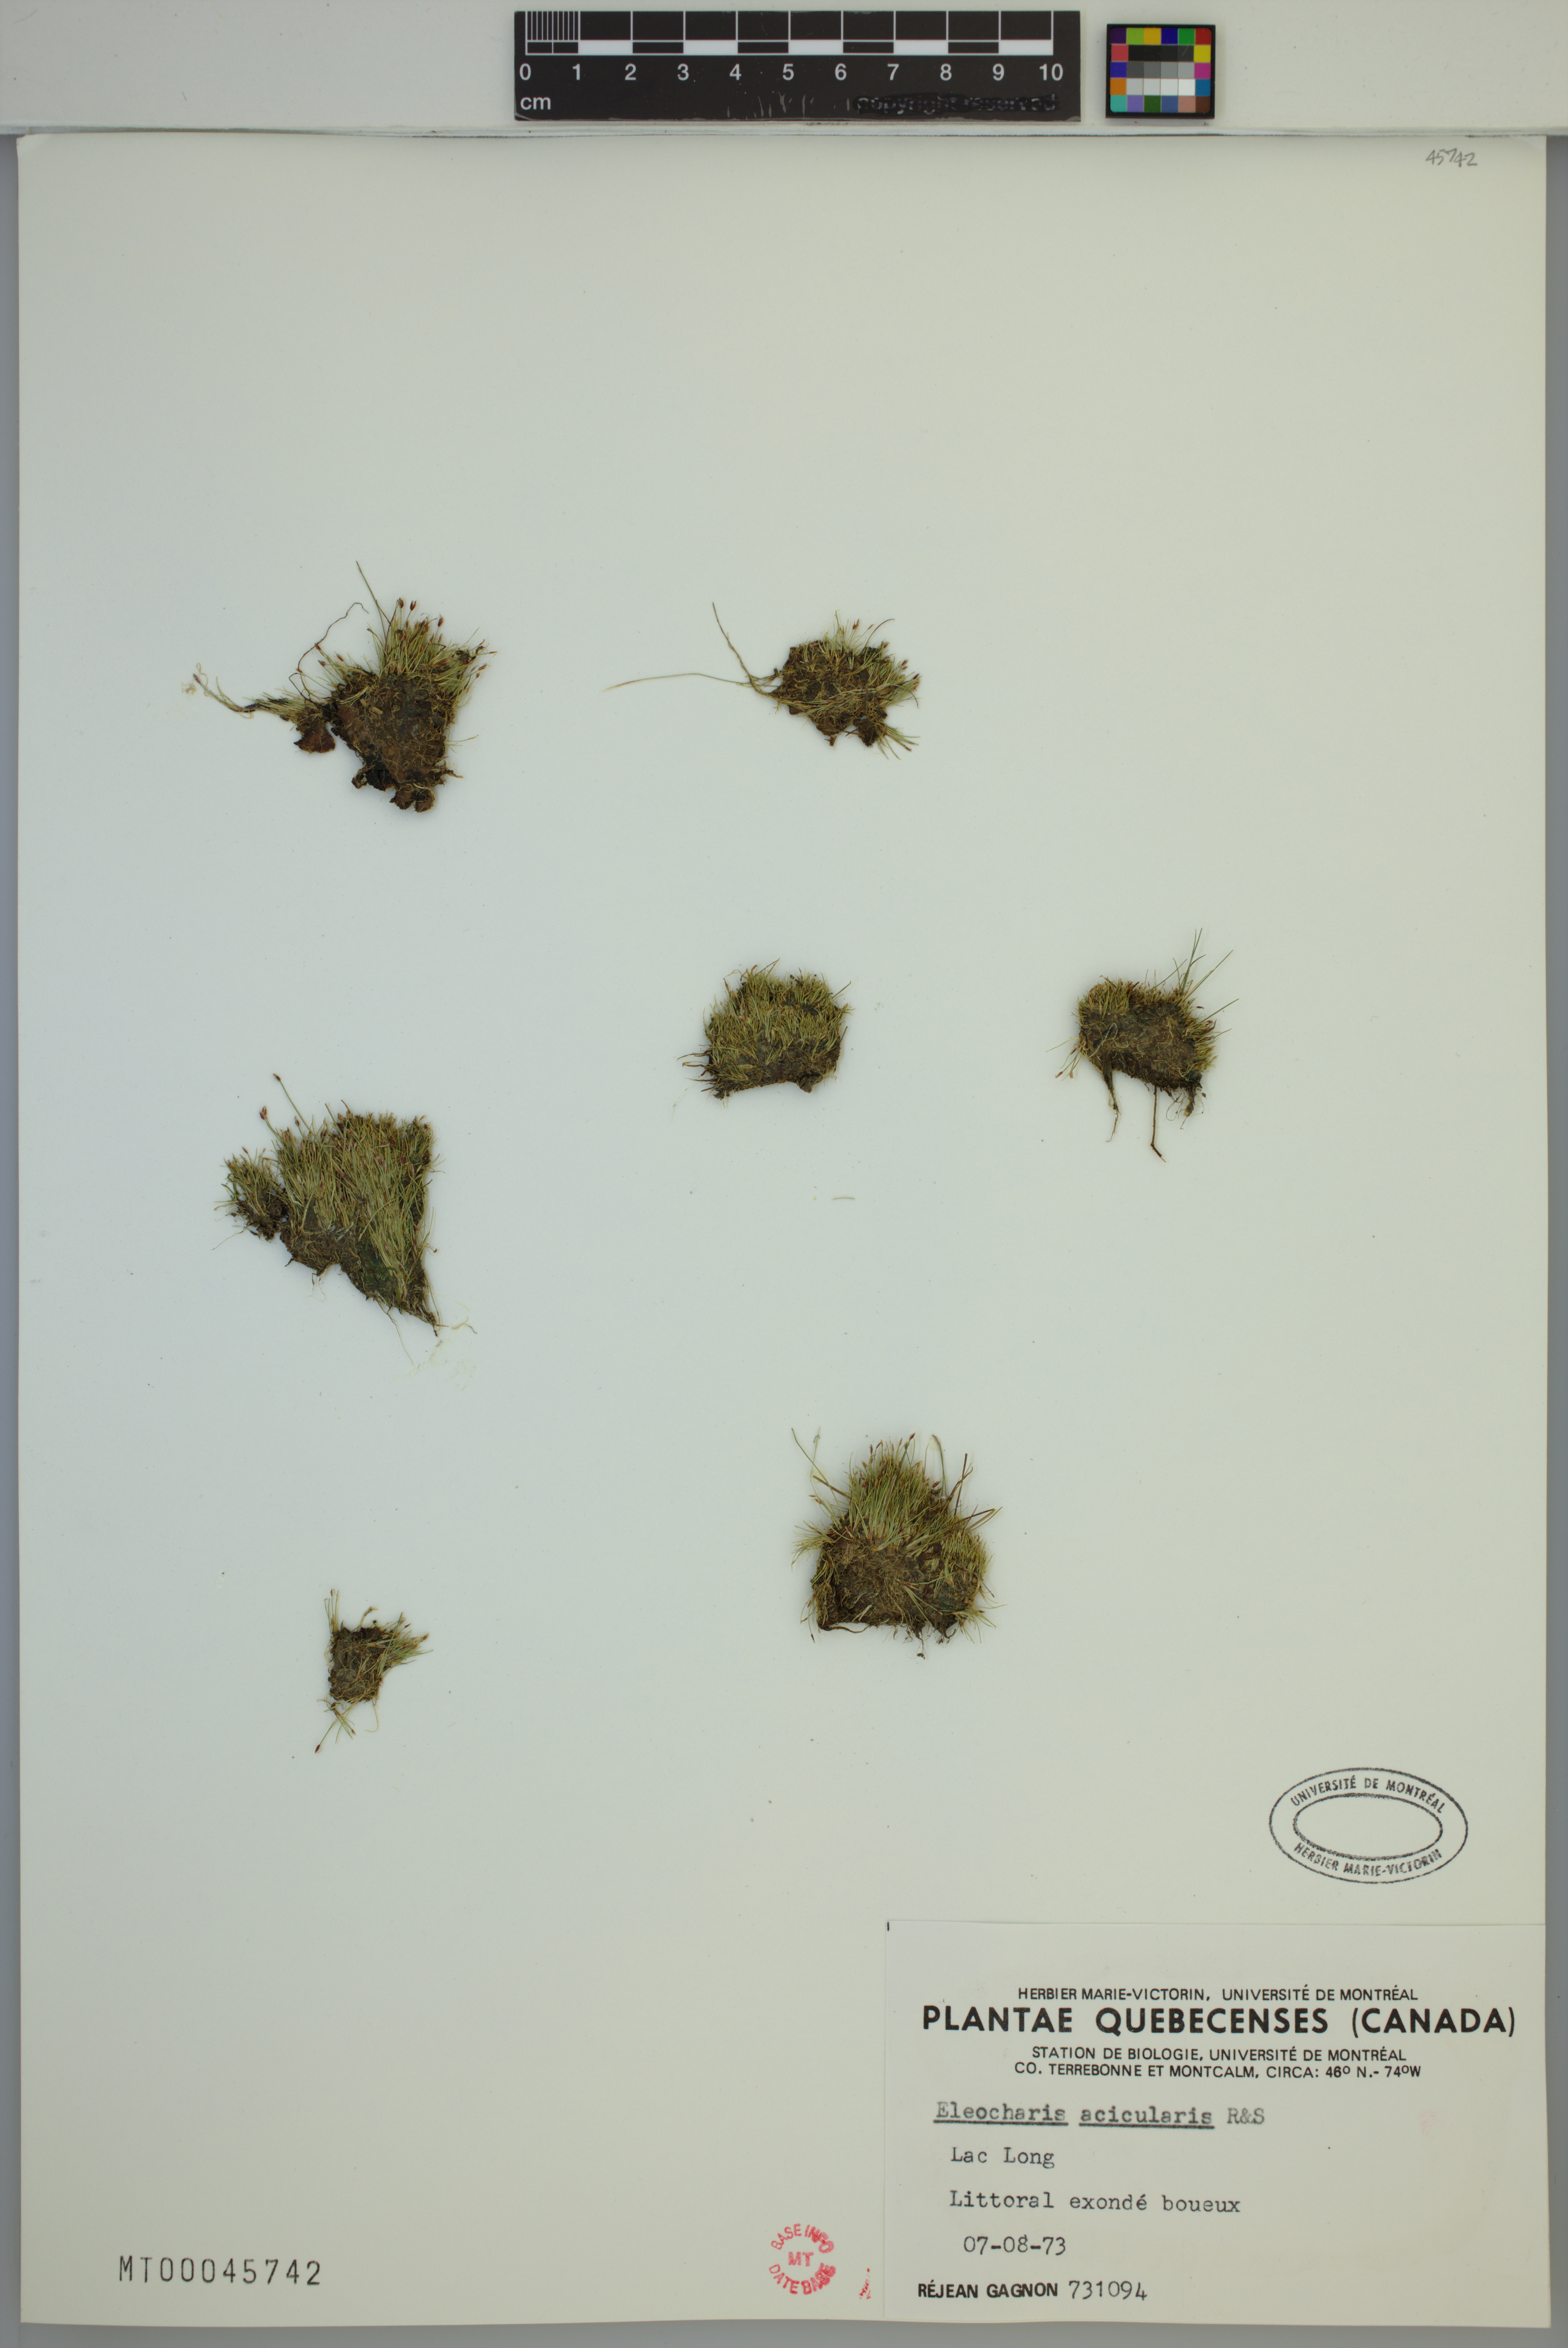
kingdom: Plantae
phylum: Tracheophyta
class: Liliopsida
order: Poales
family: Cyperaceae
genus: Eleocharis
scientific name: Eleocharis acicularis
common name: Needle spike-rush
